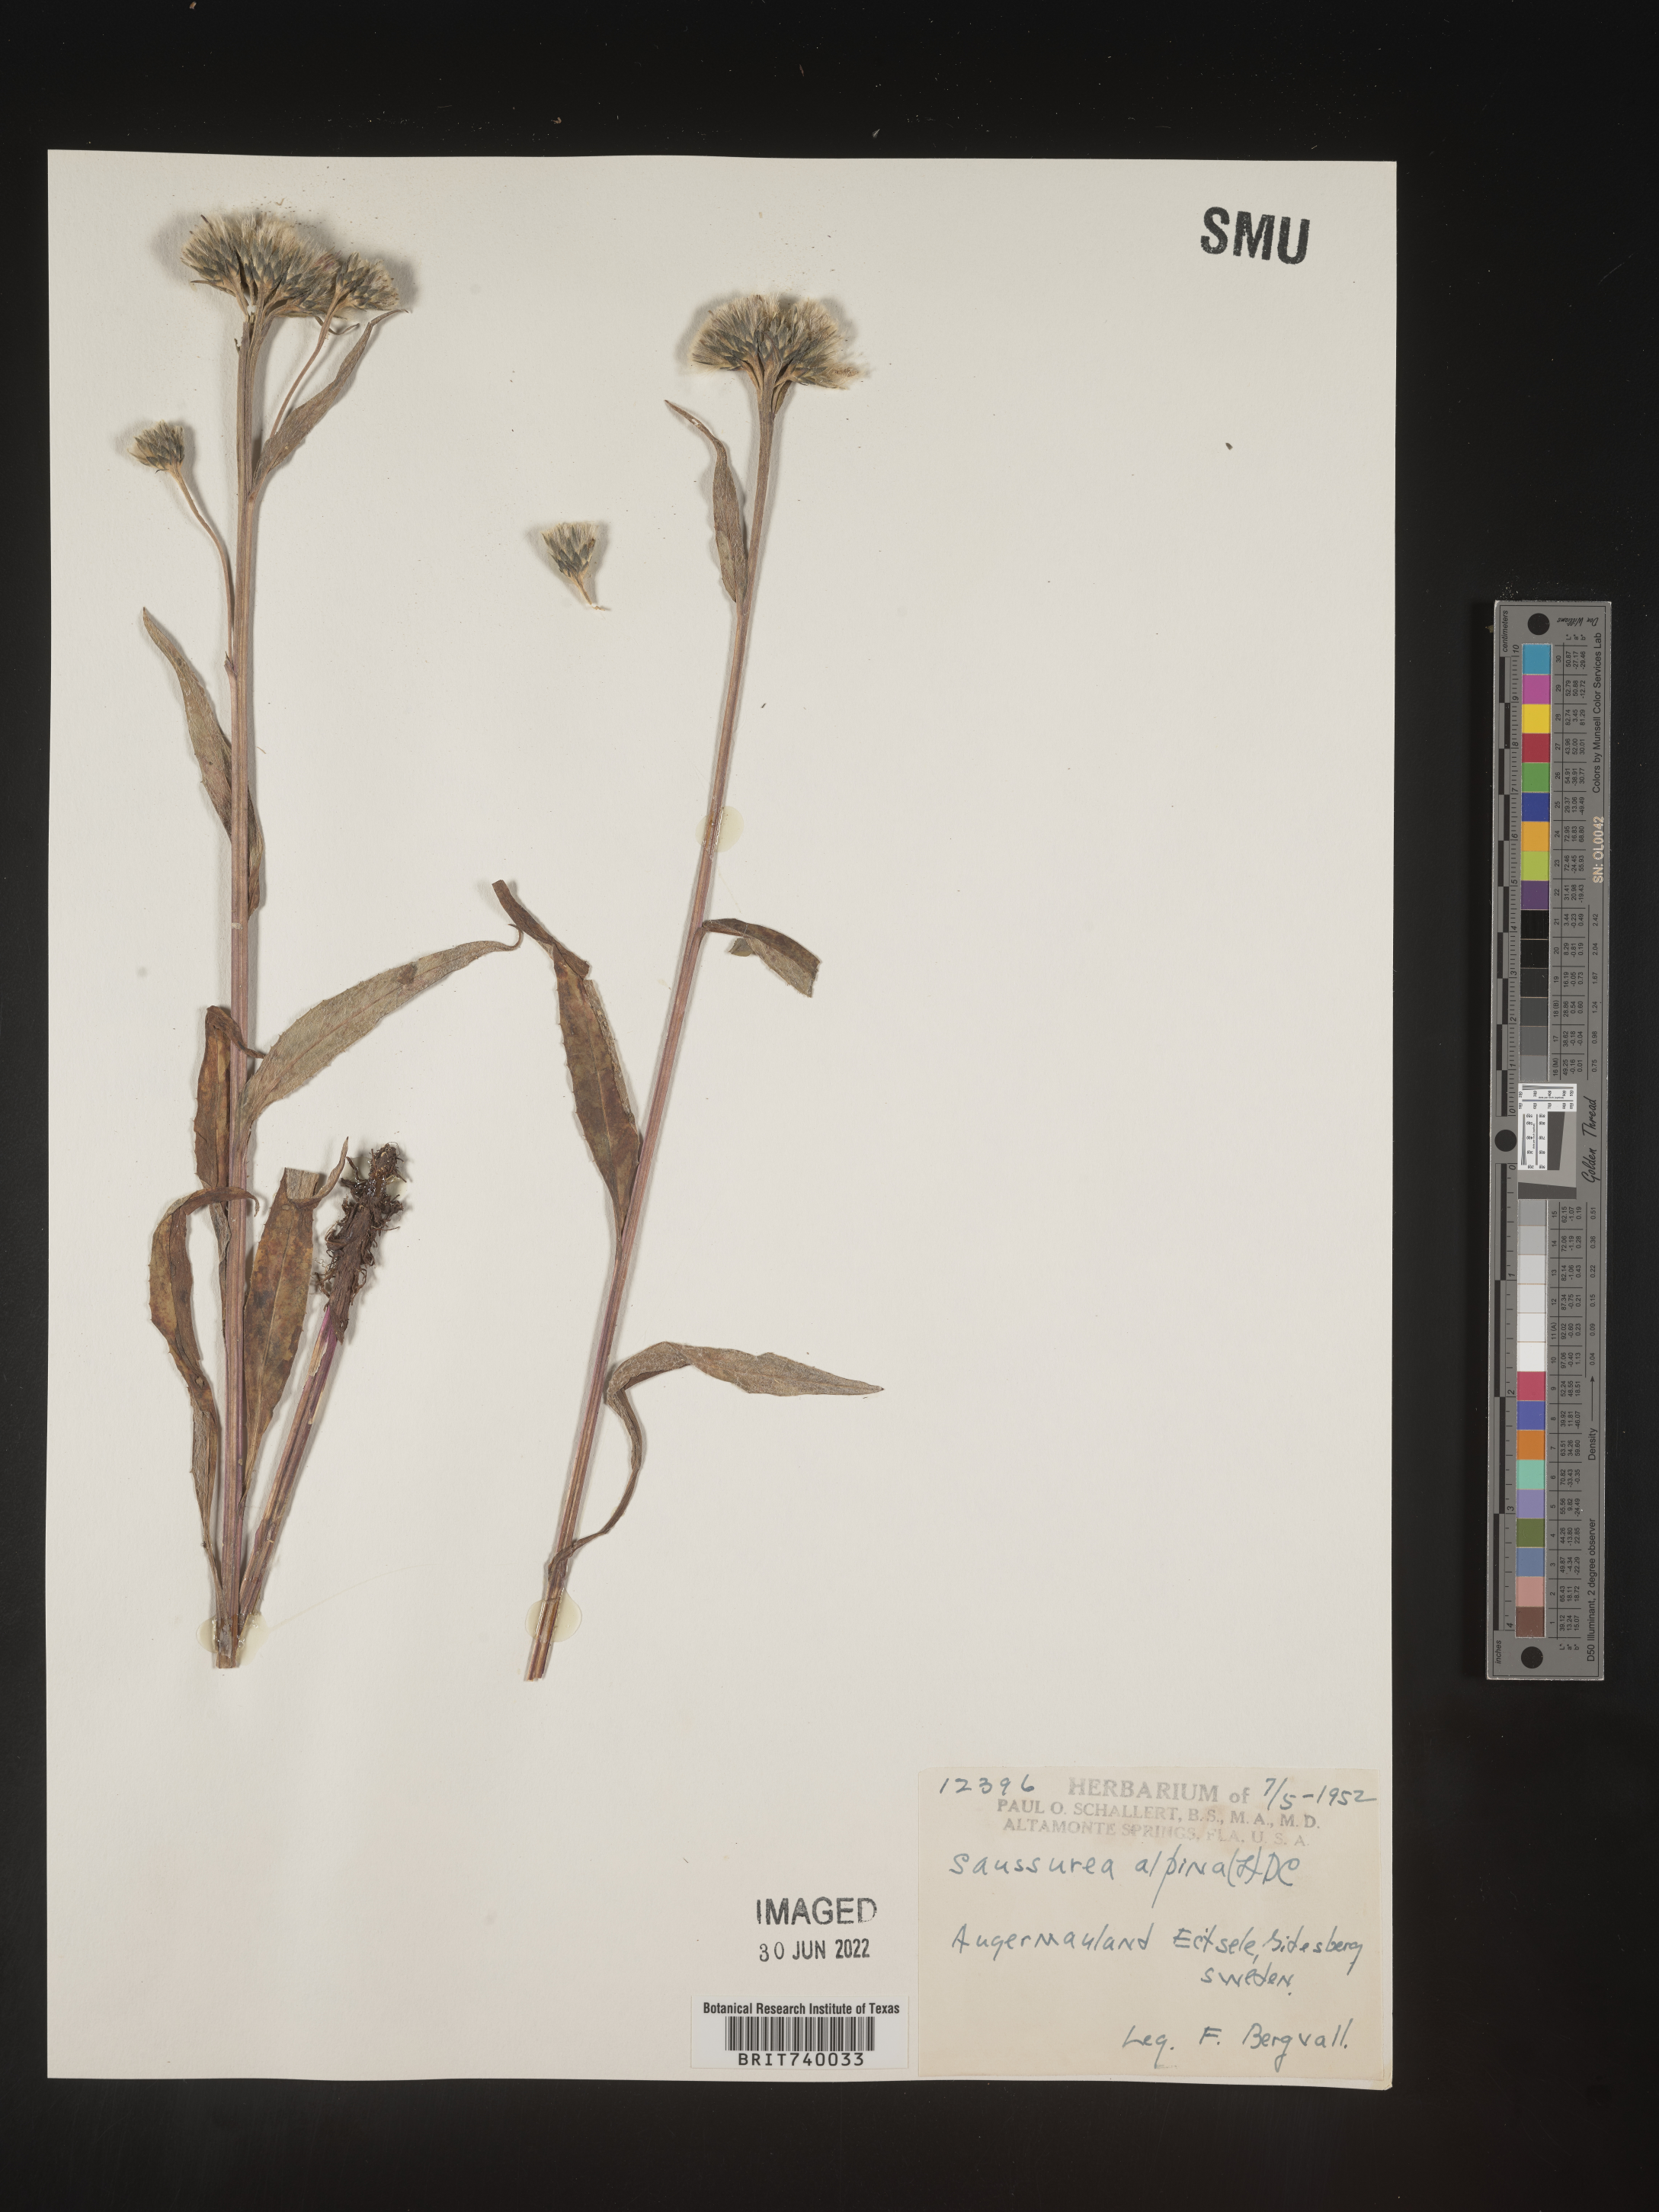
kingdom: Plantae
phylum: Tracheophyta
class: Magnoliopsida
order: Asterales
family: Asteraceae
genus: Saussurea
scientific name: Saussurea
